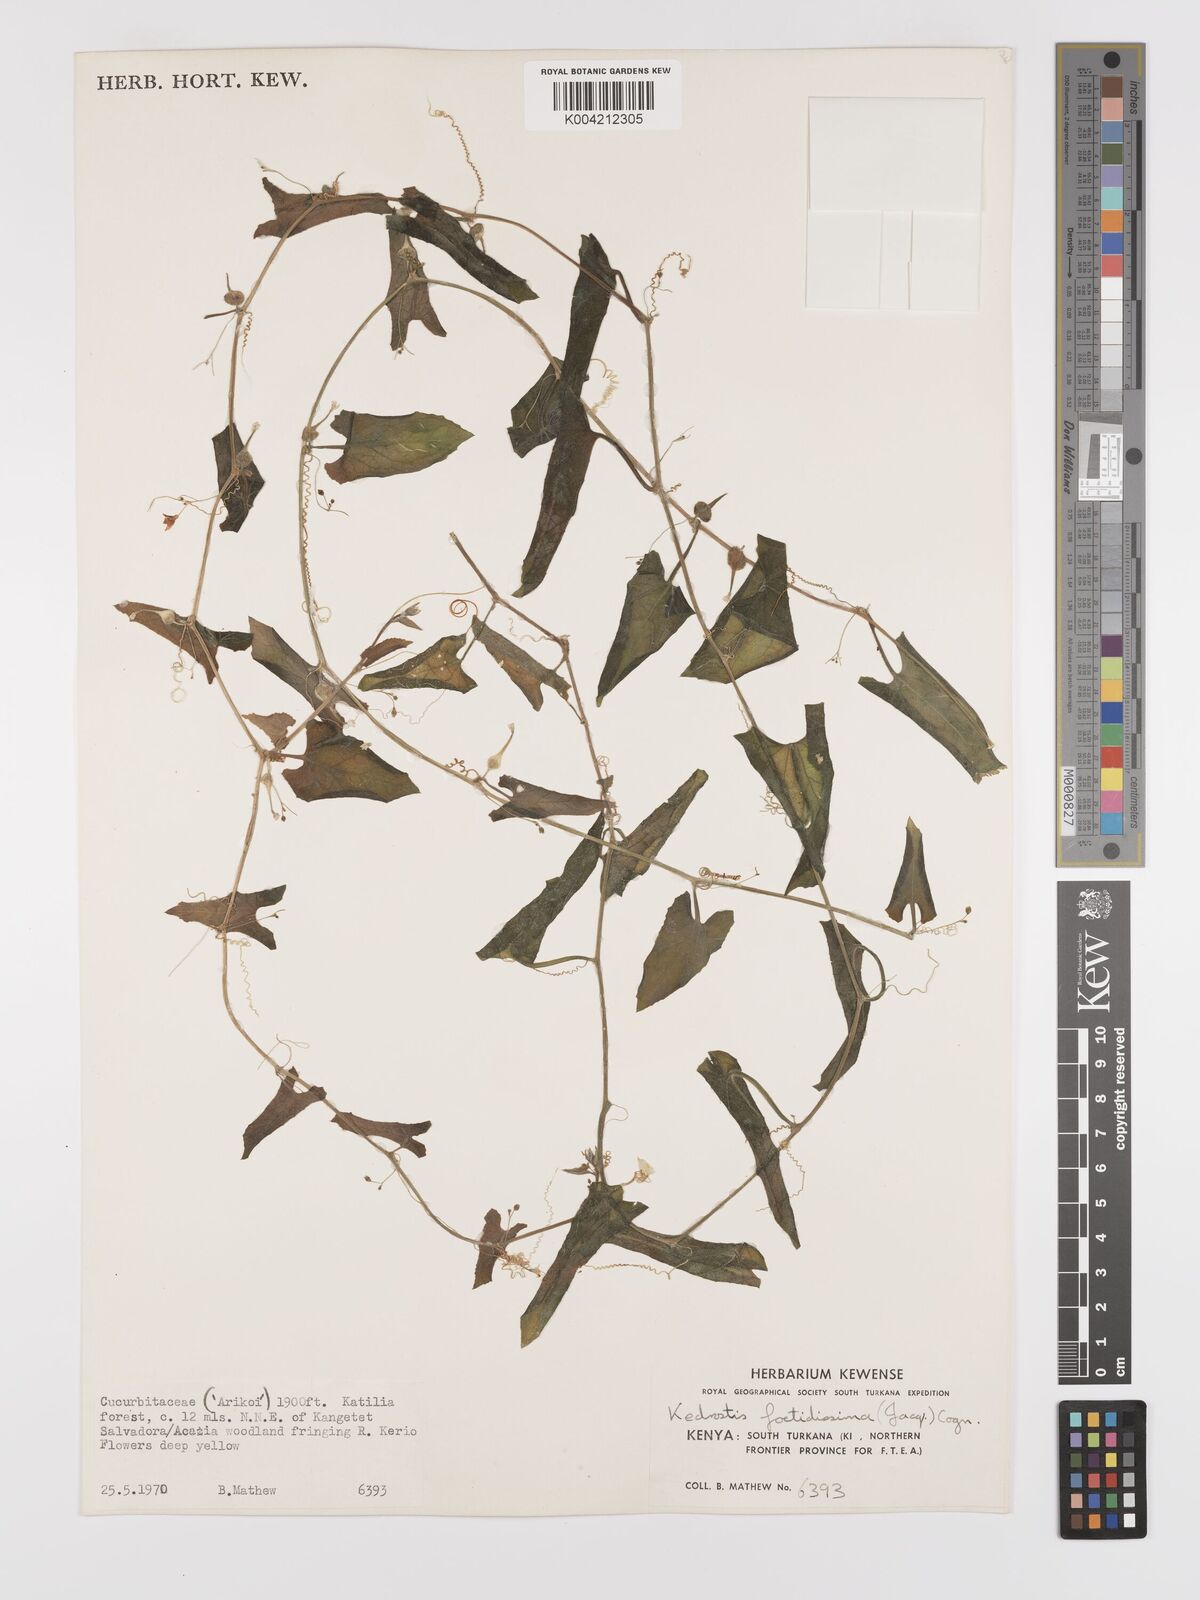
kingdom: Plantae
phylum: Tracheophyta
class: Magnoliopsida
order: Cucurbitales
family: Cucurbitaceae
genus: Kedrostis
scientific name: Kedrostis foetidissima
